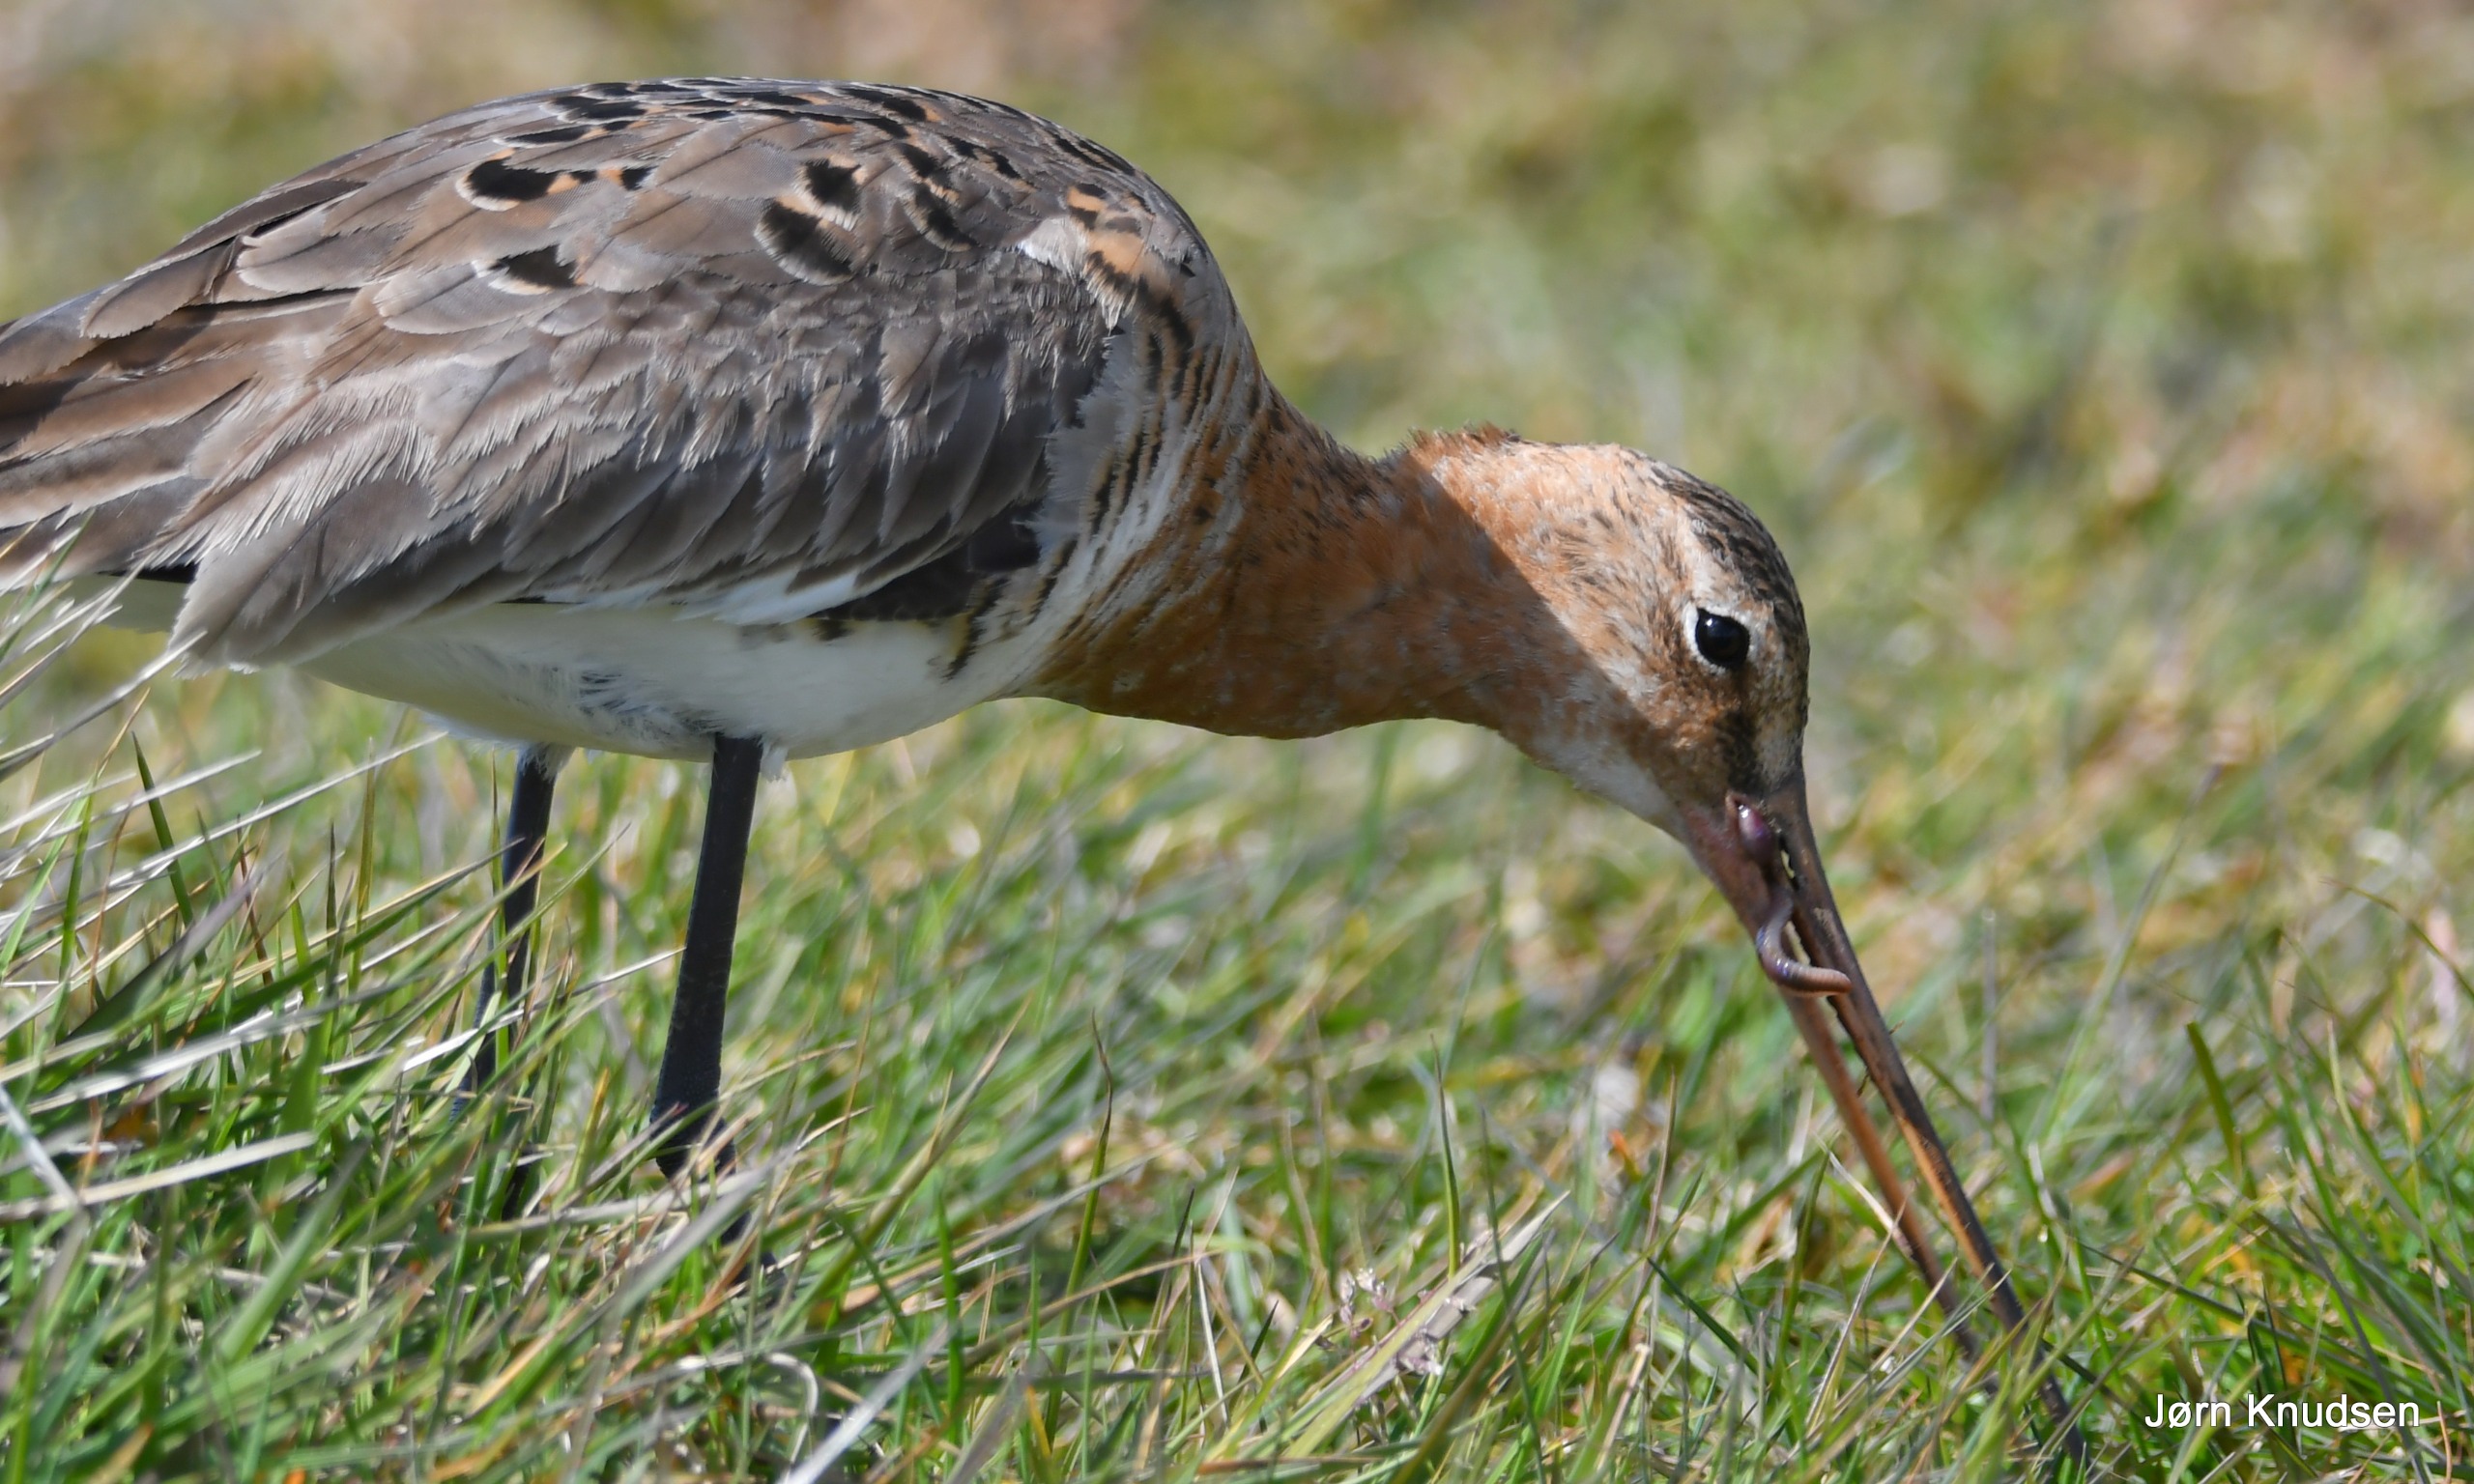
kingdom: Animalia
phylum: Chordata
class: Aves
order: Charadriiformes
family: Scolopacidae
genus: Limosa
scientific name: Limosa limosa
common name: Stor kobbersneppe
